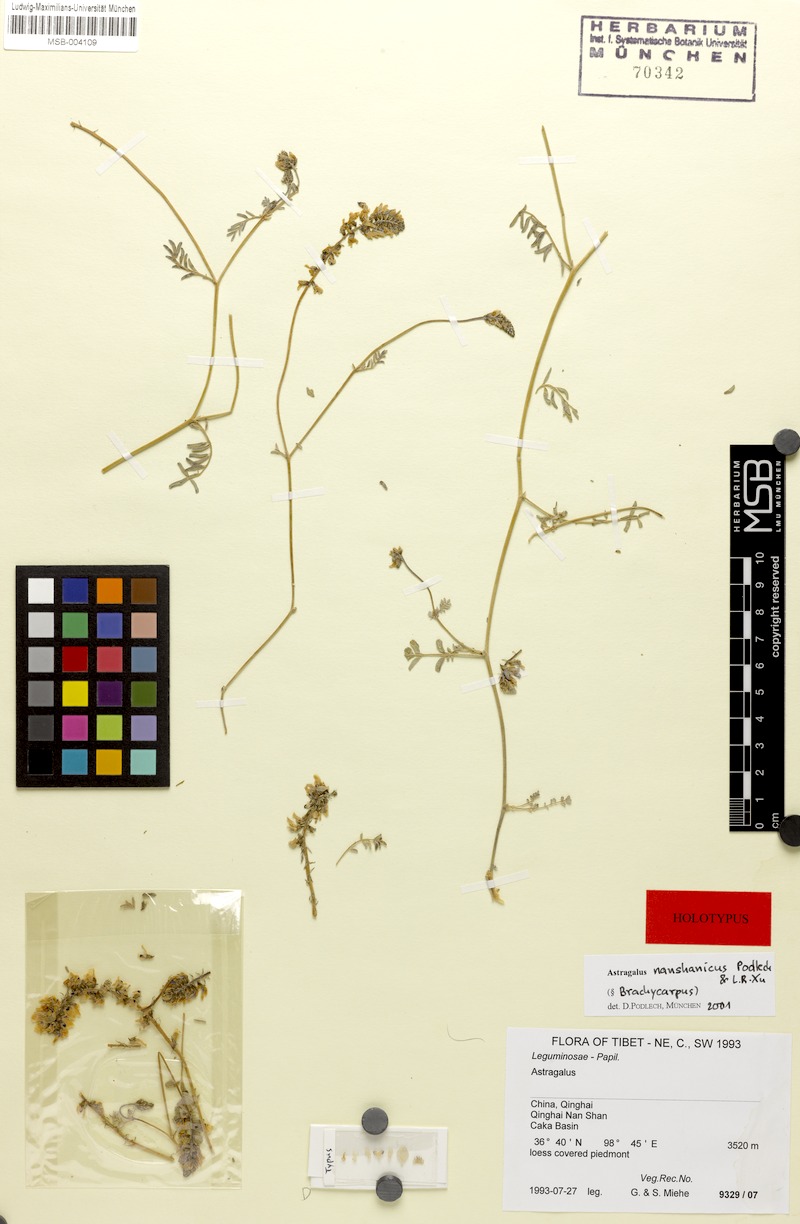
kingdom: Plantae
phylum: Tracheophyta
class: Magnoliopsida
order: Fabales
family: Fabaceae
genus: Astragalus
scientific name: Astragalus nanshanicus
